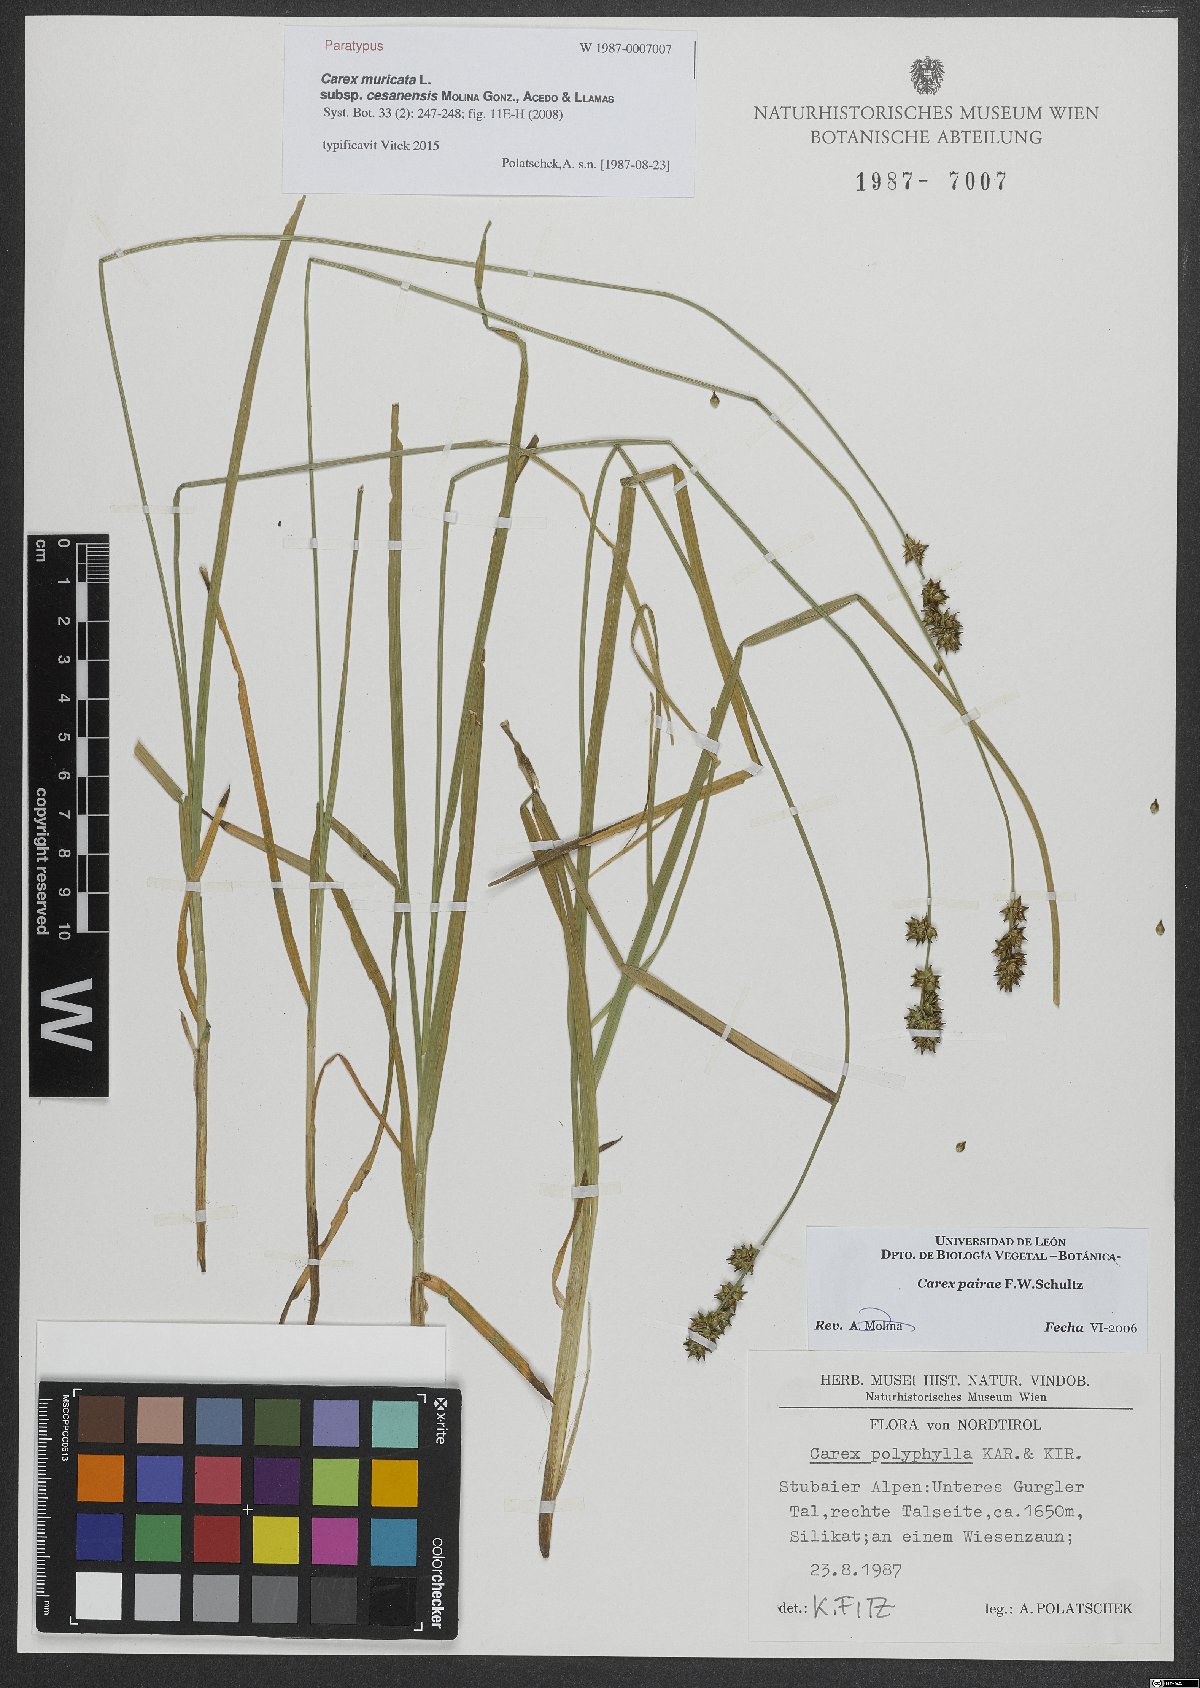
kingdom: Plantae
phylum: Tracheophyta
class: Liliopsida
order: Poales
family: Cyperaceae
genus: Carex
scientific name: Carex muricata
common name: Rough sedge
